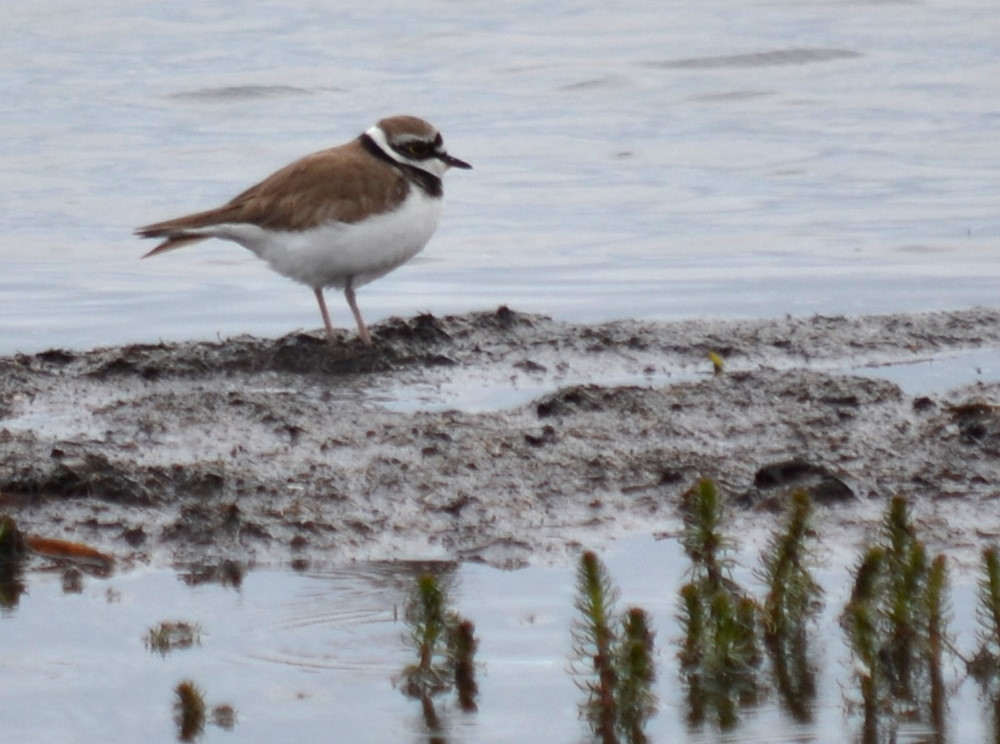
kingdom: Animalia
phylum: Chordata
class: Aves
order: Charadriiformes
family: Charadriidae
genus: Charadrius
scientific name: Charadrius dubius
